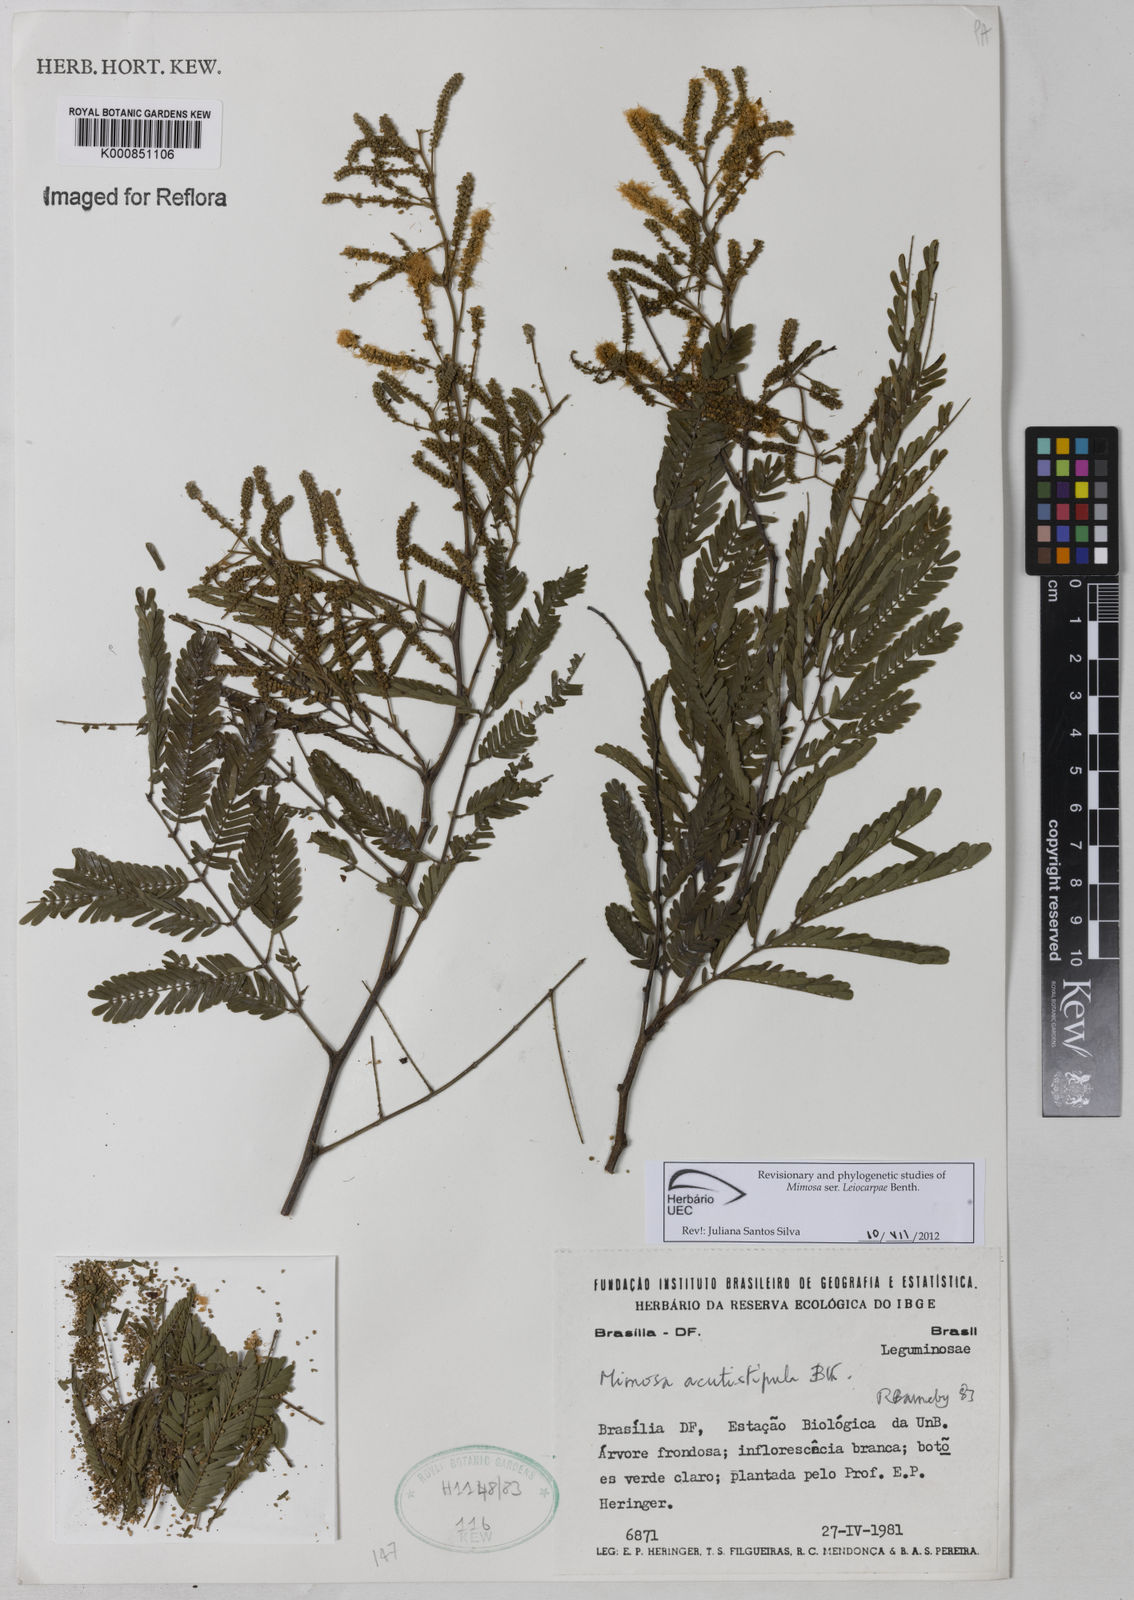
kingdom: Plantae
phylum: Tracheophyta
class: Magnoliopsida
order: Fabales
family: Fabaceae
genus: Mimosa
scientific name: Mimosa acutistipula
